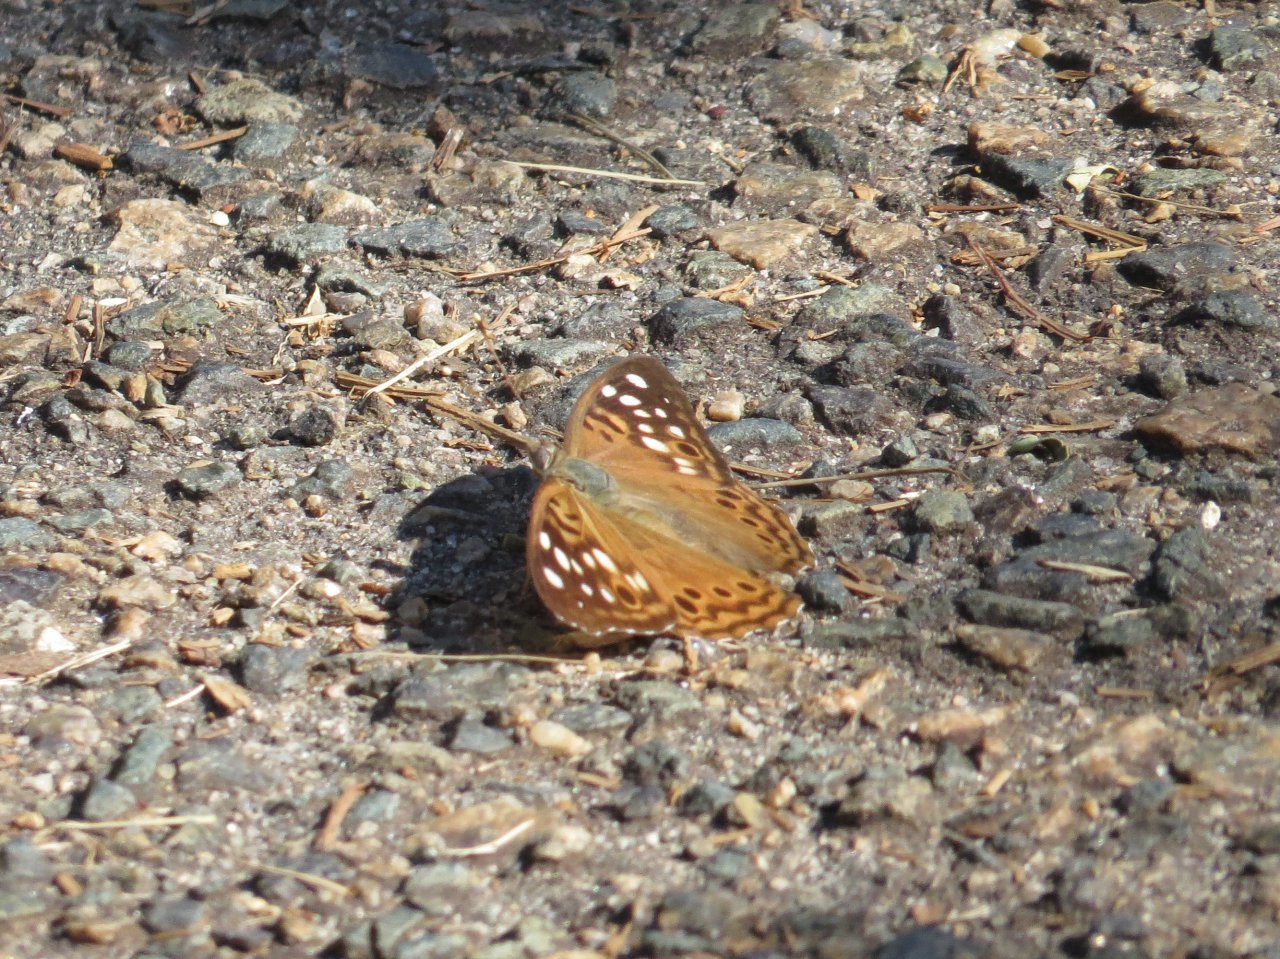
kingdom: Animalia
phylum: Arthropoda
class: Insecta
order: Lepidoptera
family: Nymphalidae
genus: Asterocampa
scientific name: Asterocampa celtis
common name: Hackberry Emperor
